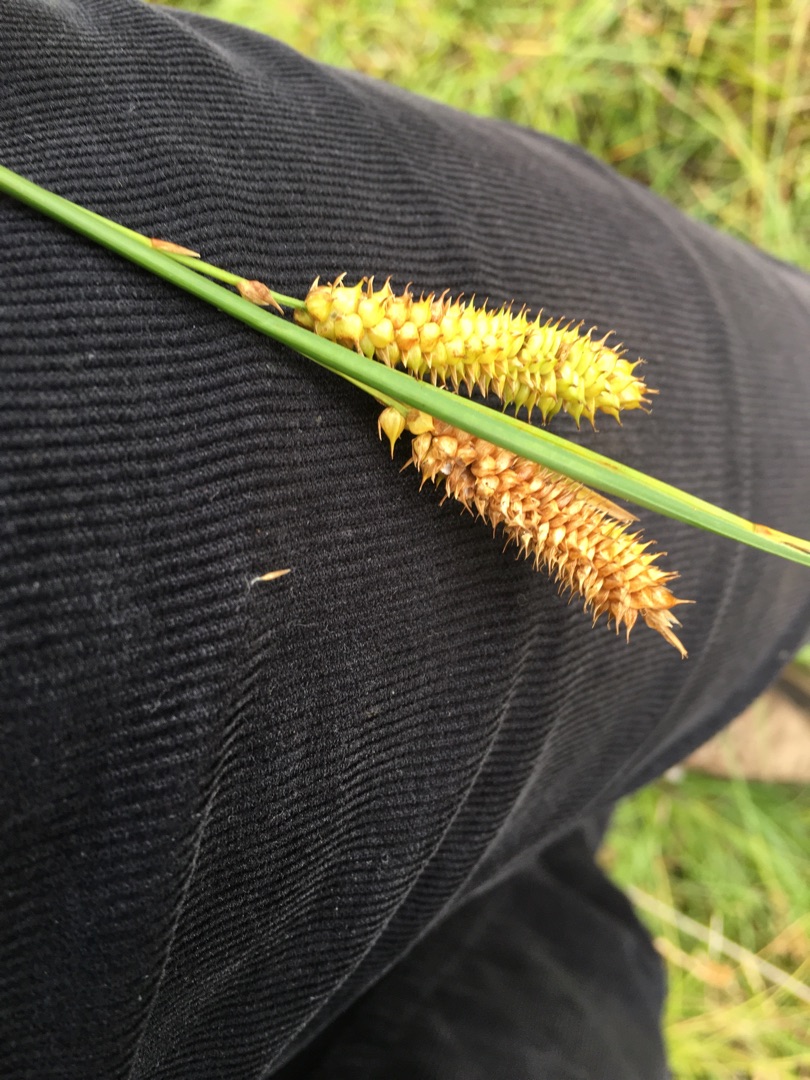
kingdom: Plantae
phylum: Tracheophyta
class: Liliopsida
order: Poales
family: Cyperaceae
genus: Carex
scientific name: Carex rostrata
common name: Næb-star
